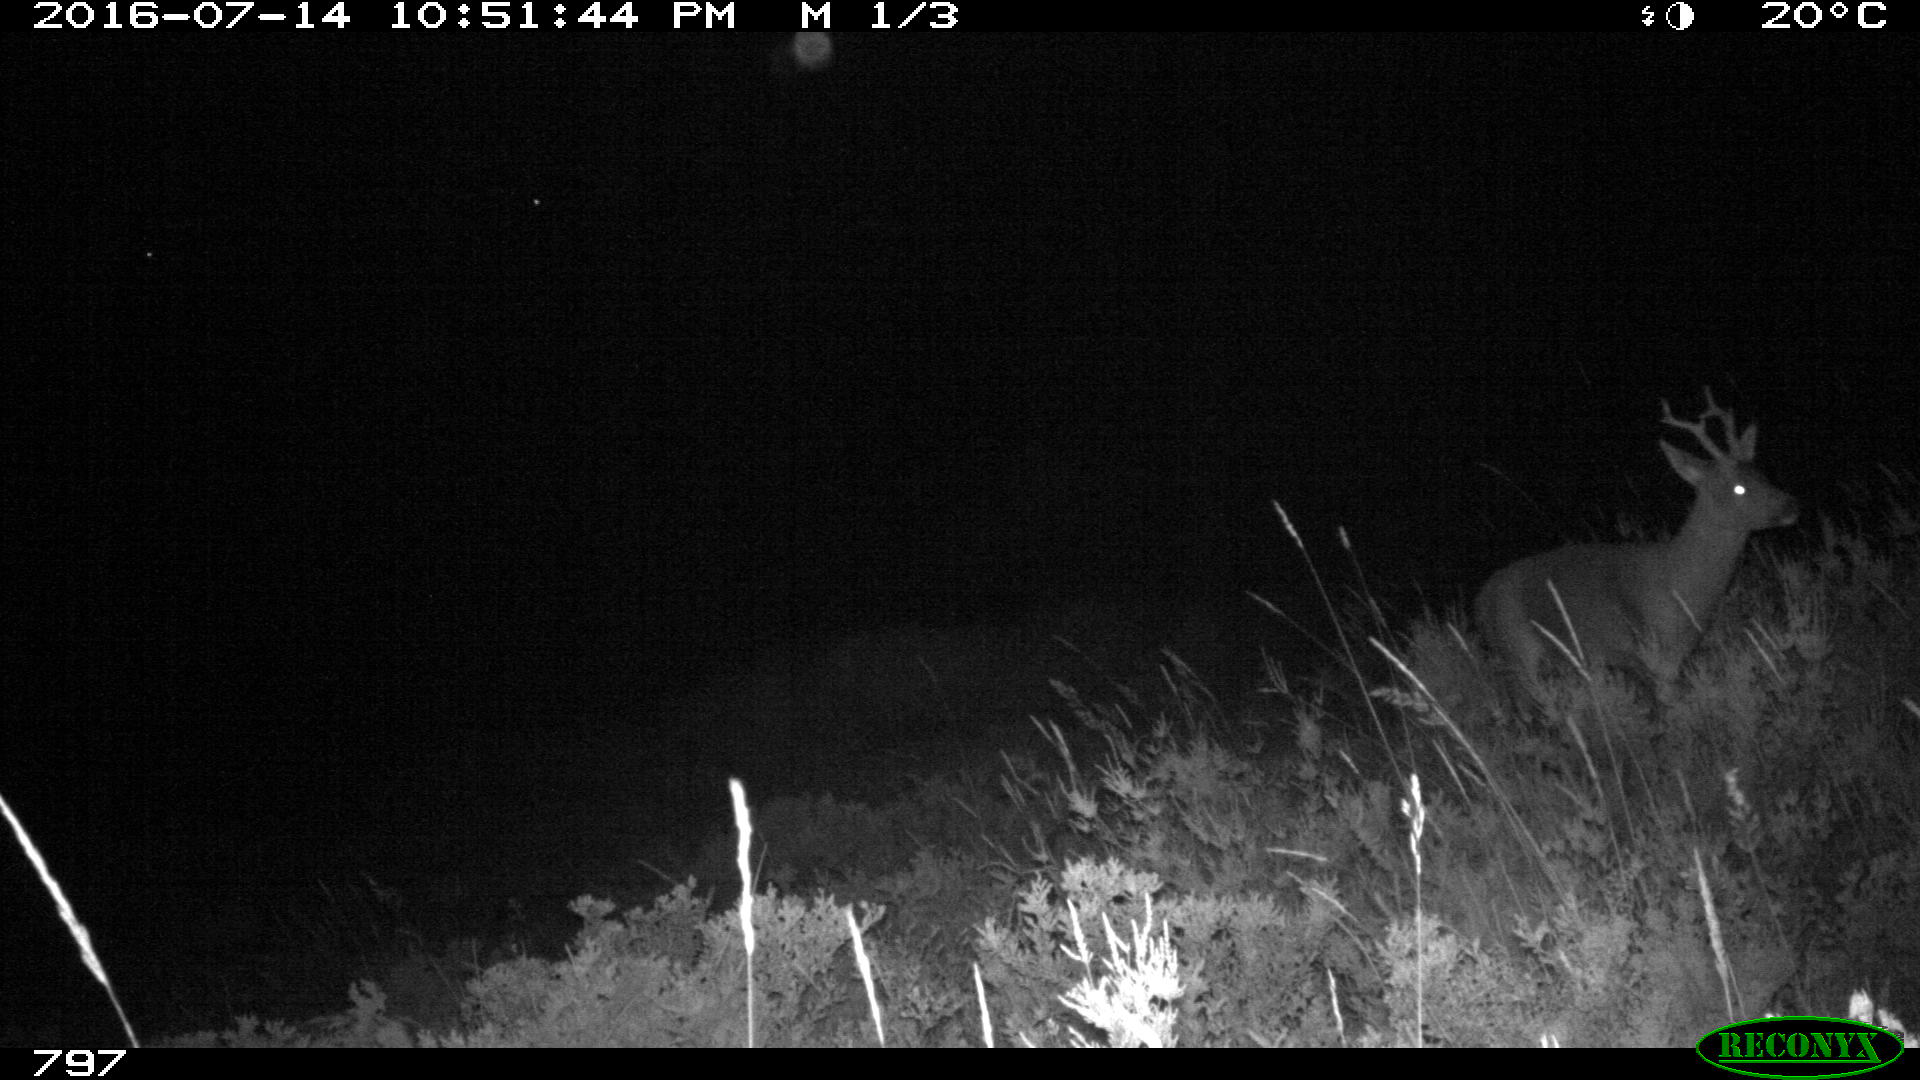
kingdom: Animalia
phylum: Chordata
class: Mammalia
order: Artiodactyla
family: Cervidae
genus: Capreolus
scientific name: Capreolus capreolus
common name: Western roe deer
